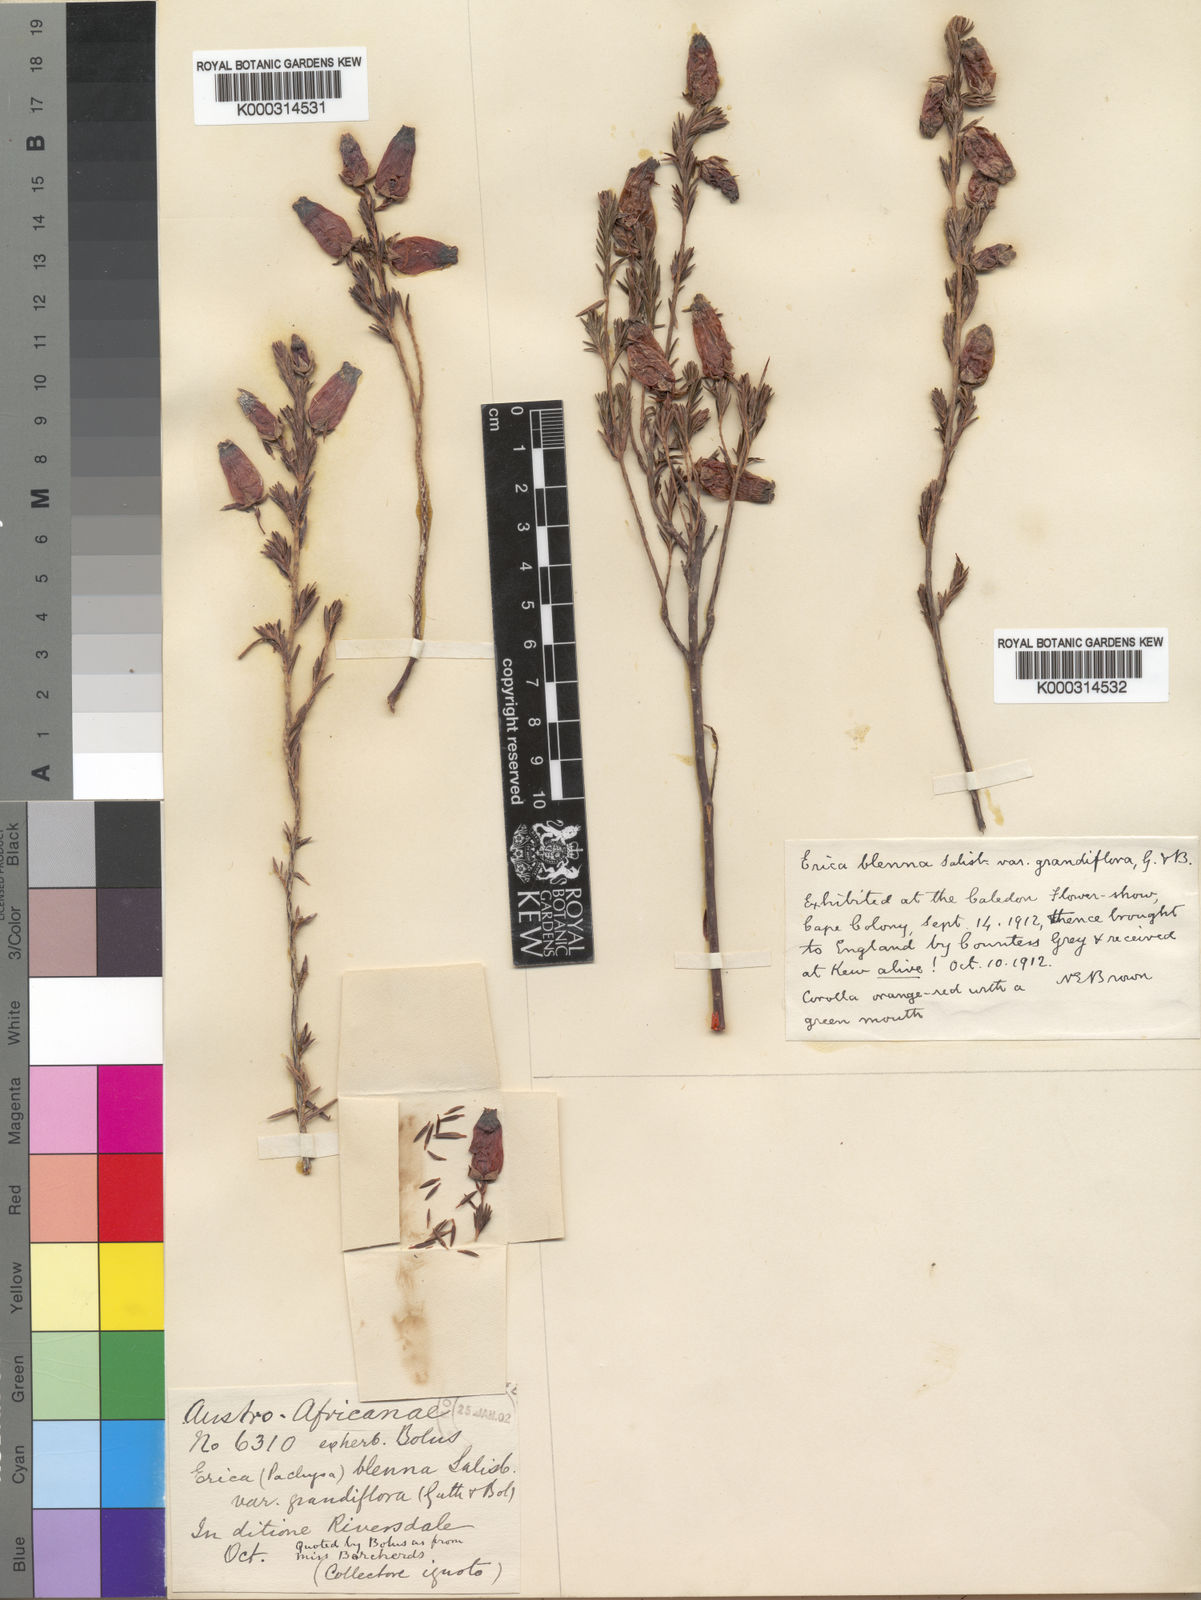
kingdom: Plantae
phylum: Tracheophyta
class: Magnoliopsida
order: Ericales
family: Ericaceae
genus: Erica
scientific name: Erica blenna
